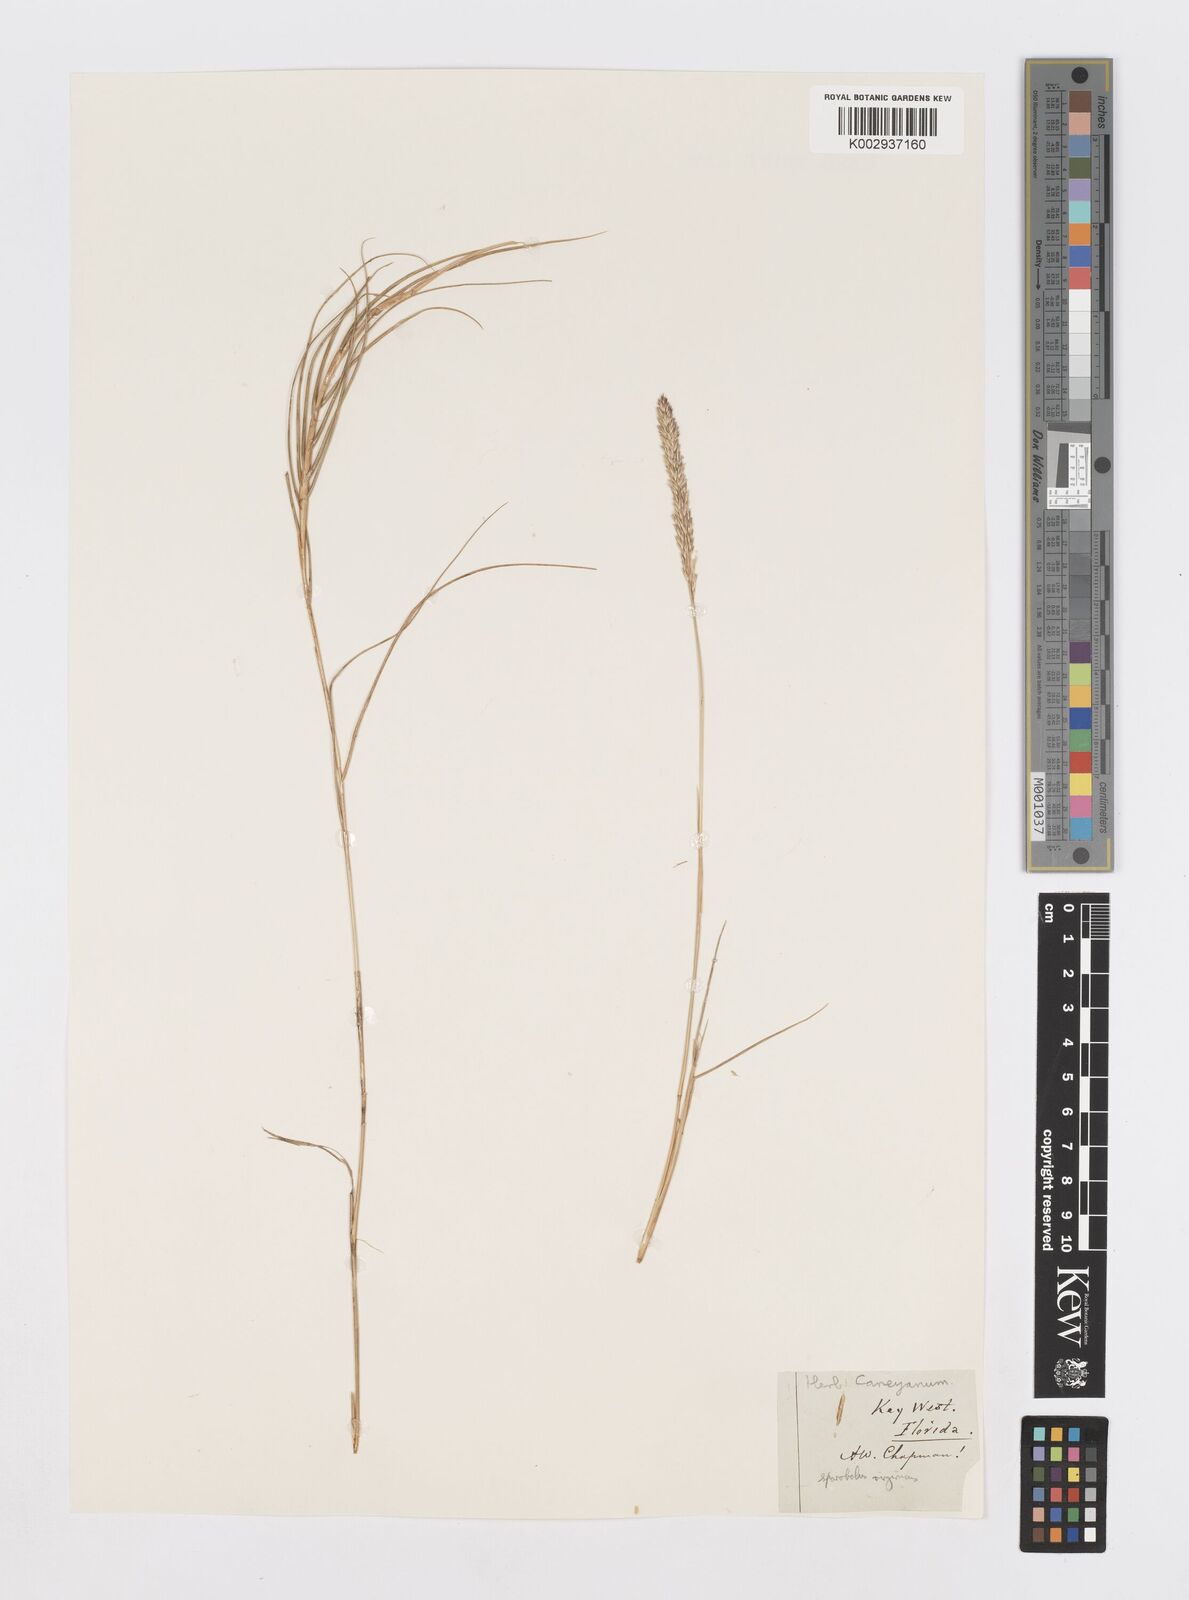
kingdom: Plantae
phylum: Tracheophyta
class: Liliopsida
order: Poales
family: Poaceae
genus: Sporobolus
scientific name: Sporobolus virginicus
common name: Beach dropseed
